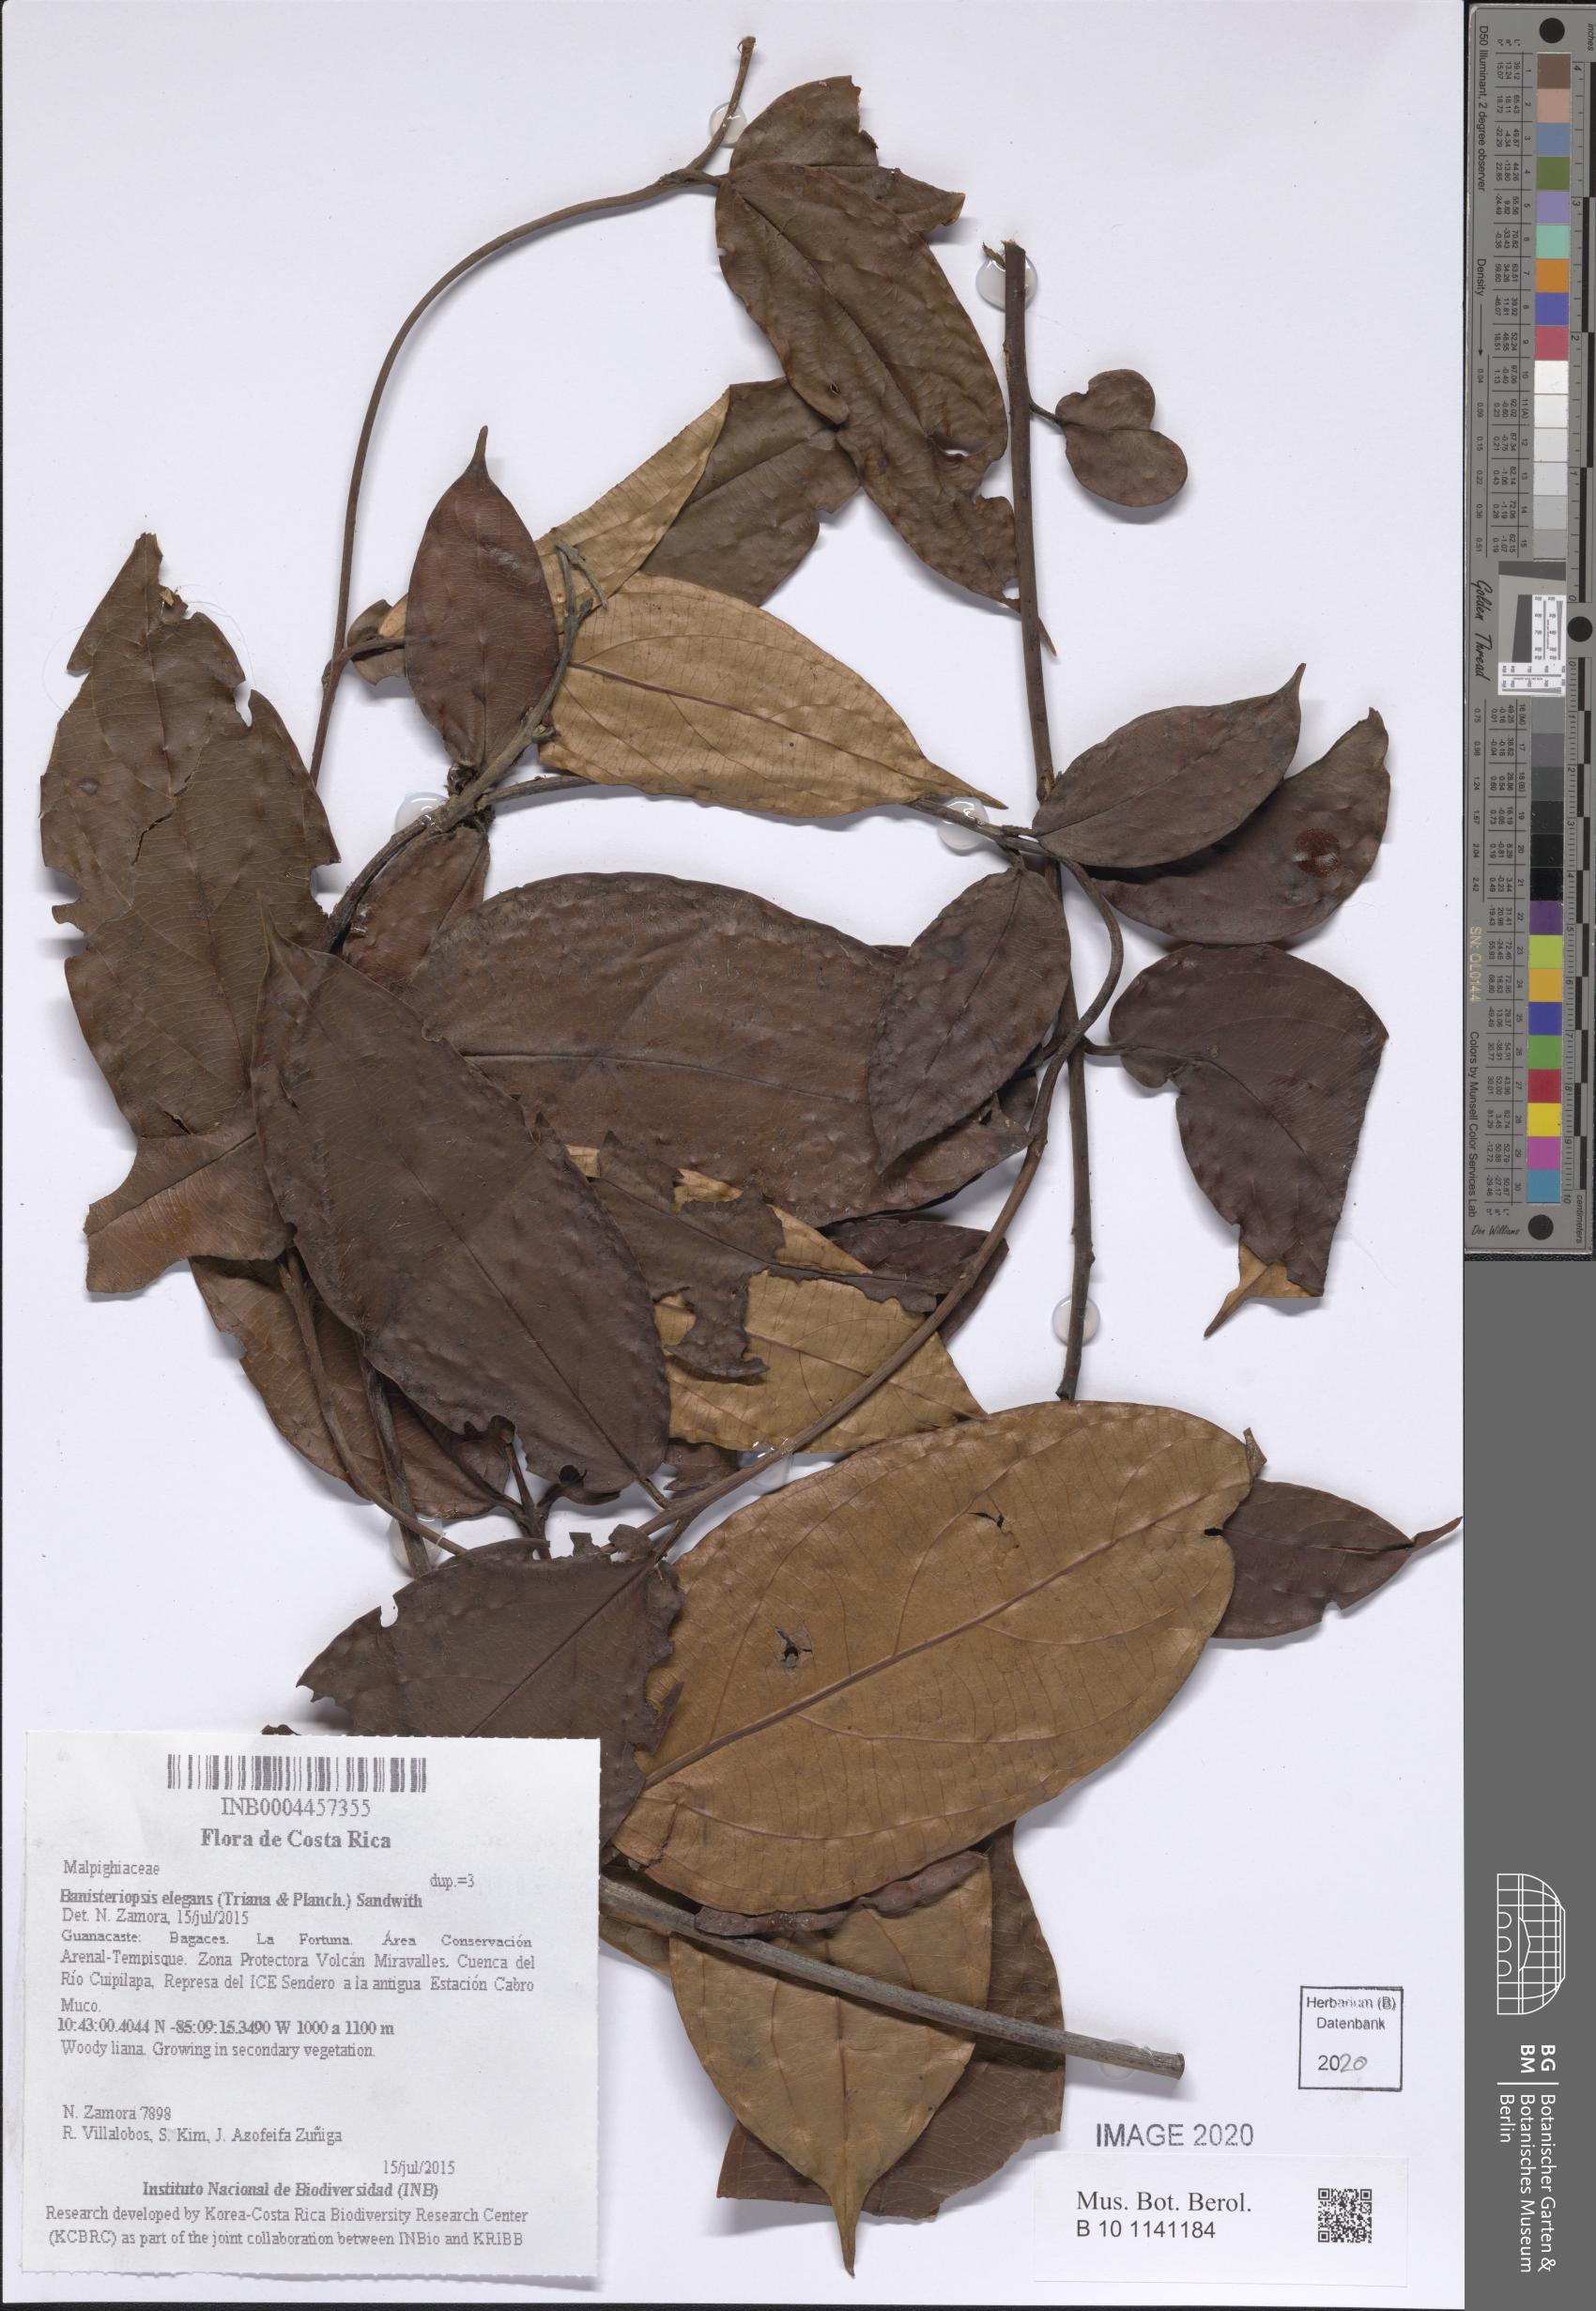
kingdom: Plantae
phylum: Tracheophyta
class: Magnoliopsida
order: Malpighiales
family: Malpighiaceae
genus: Banisteriopsis
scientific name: Banisteriopsis elegans
